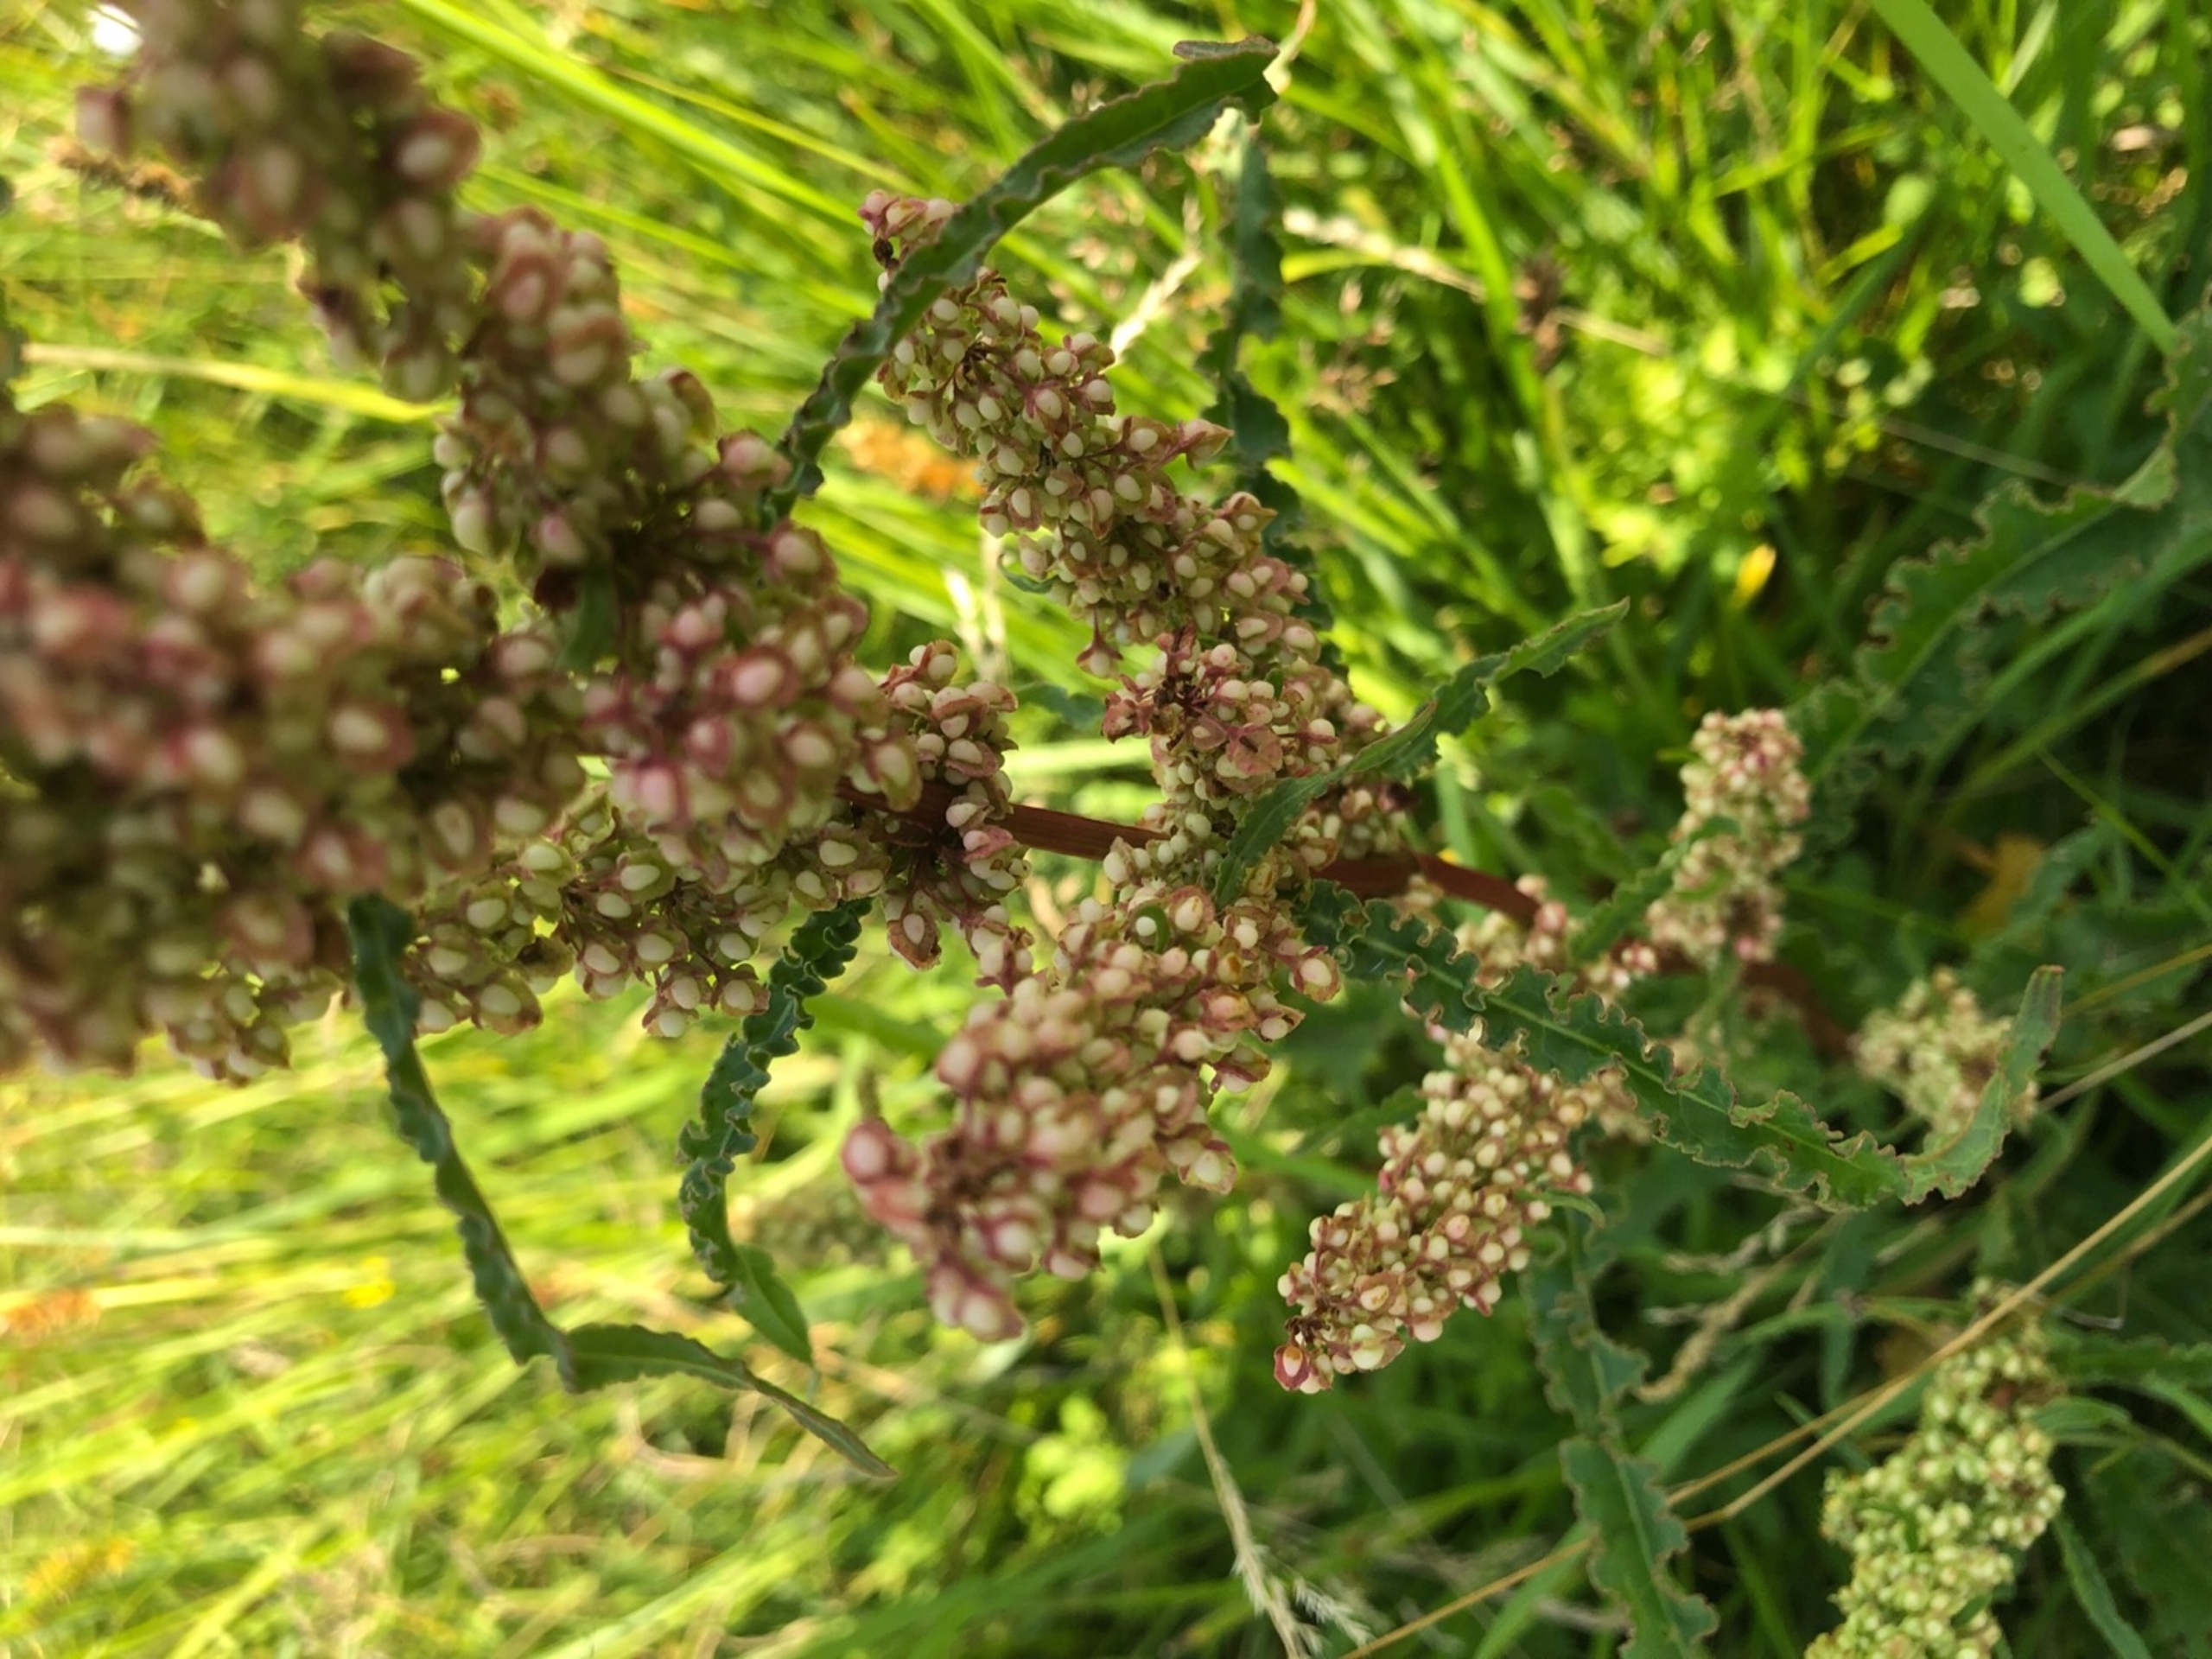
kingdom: Plantae
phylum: Tracheophyta
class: Magnoliopsida
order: Caryophyllales
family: Polygonaceae
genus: Rumex
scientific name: Rumex crispus
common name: Kruset skræppe
